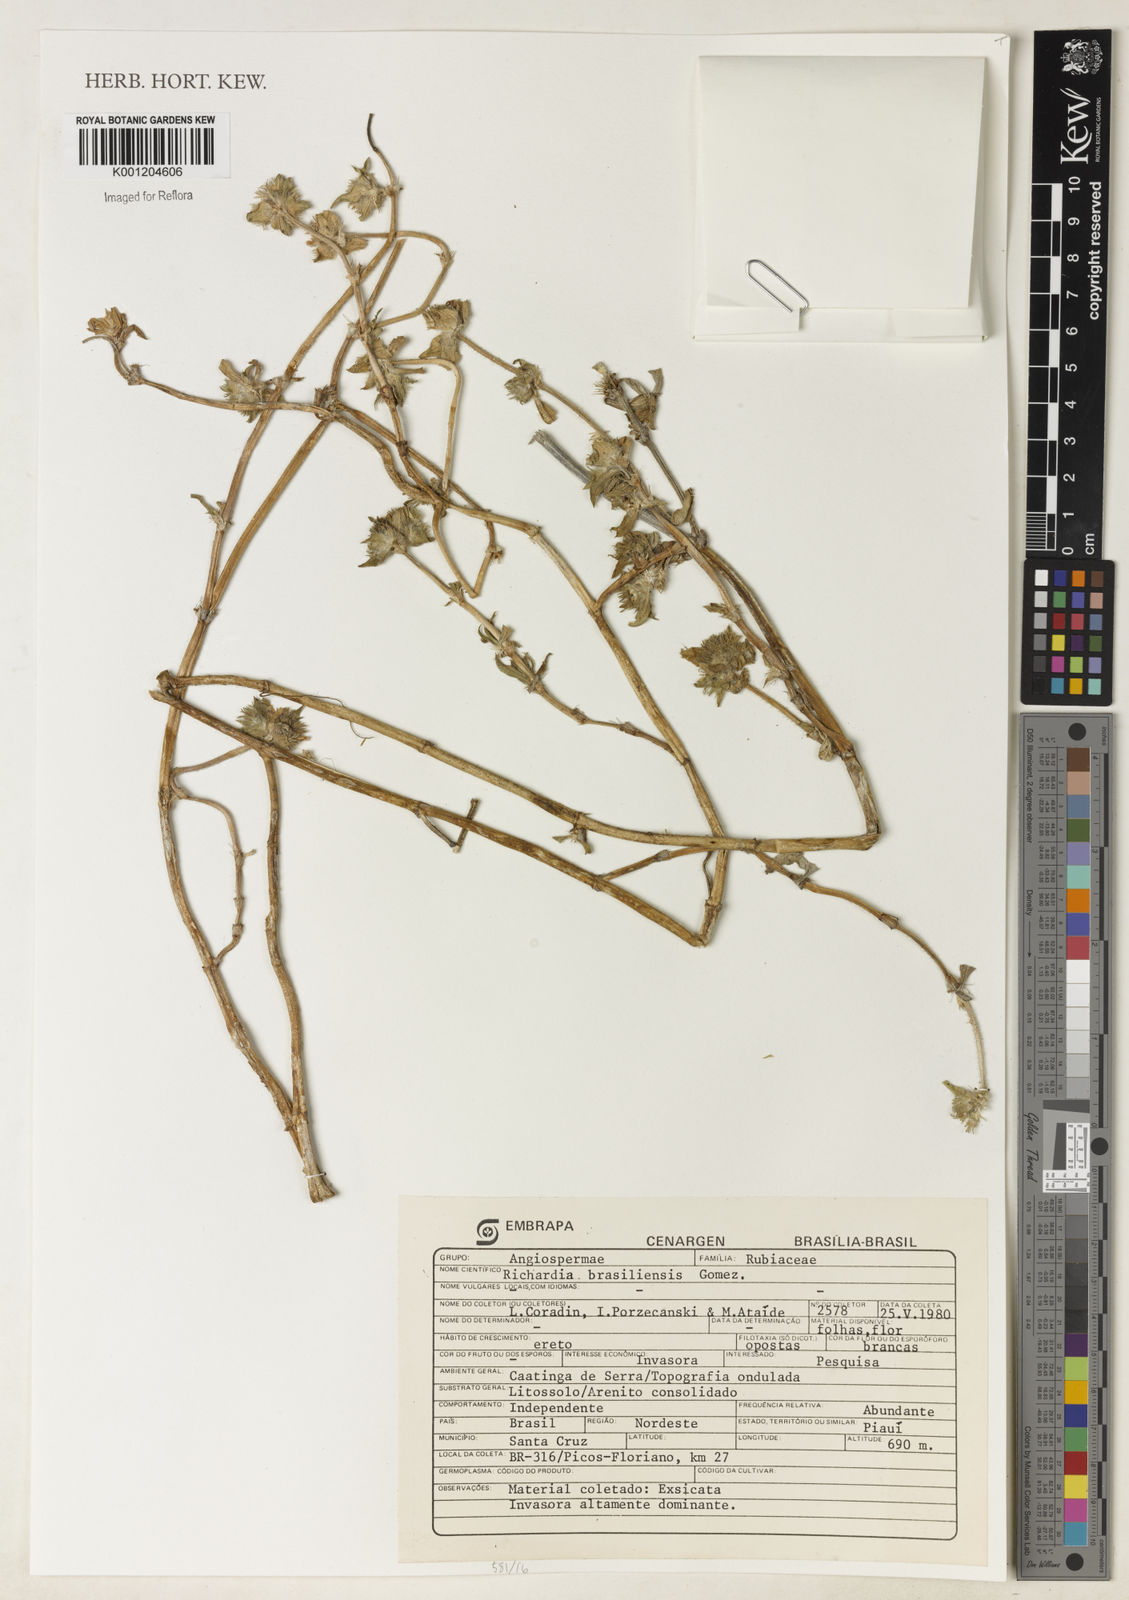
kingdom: Plantae
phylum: Tracheophyta
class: Magnoliopsida
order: Gentianales
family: Rubiaceae
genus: Richardia
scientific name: Richardia grandiflora
